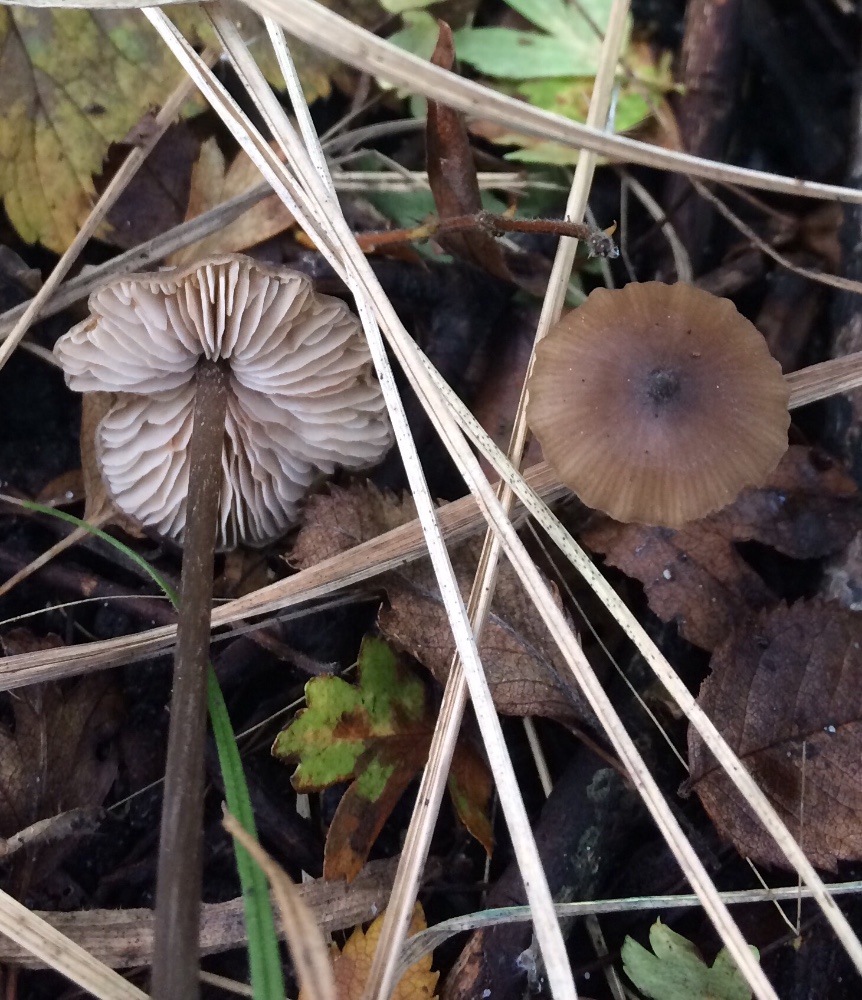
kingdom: Fungi
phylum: Basidiomycota
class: Agaricomycetes
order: Agaricales
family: Entolomataceae
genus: Entoloma
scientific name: Entoloma hebes
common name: krat-rødblad
